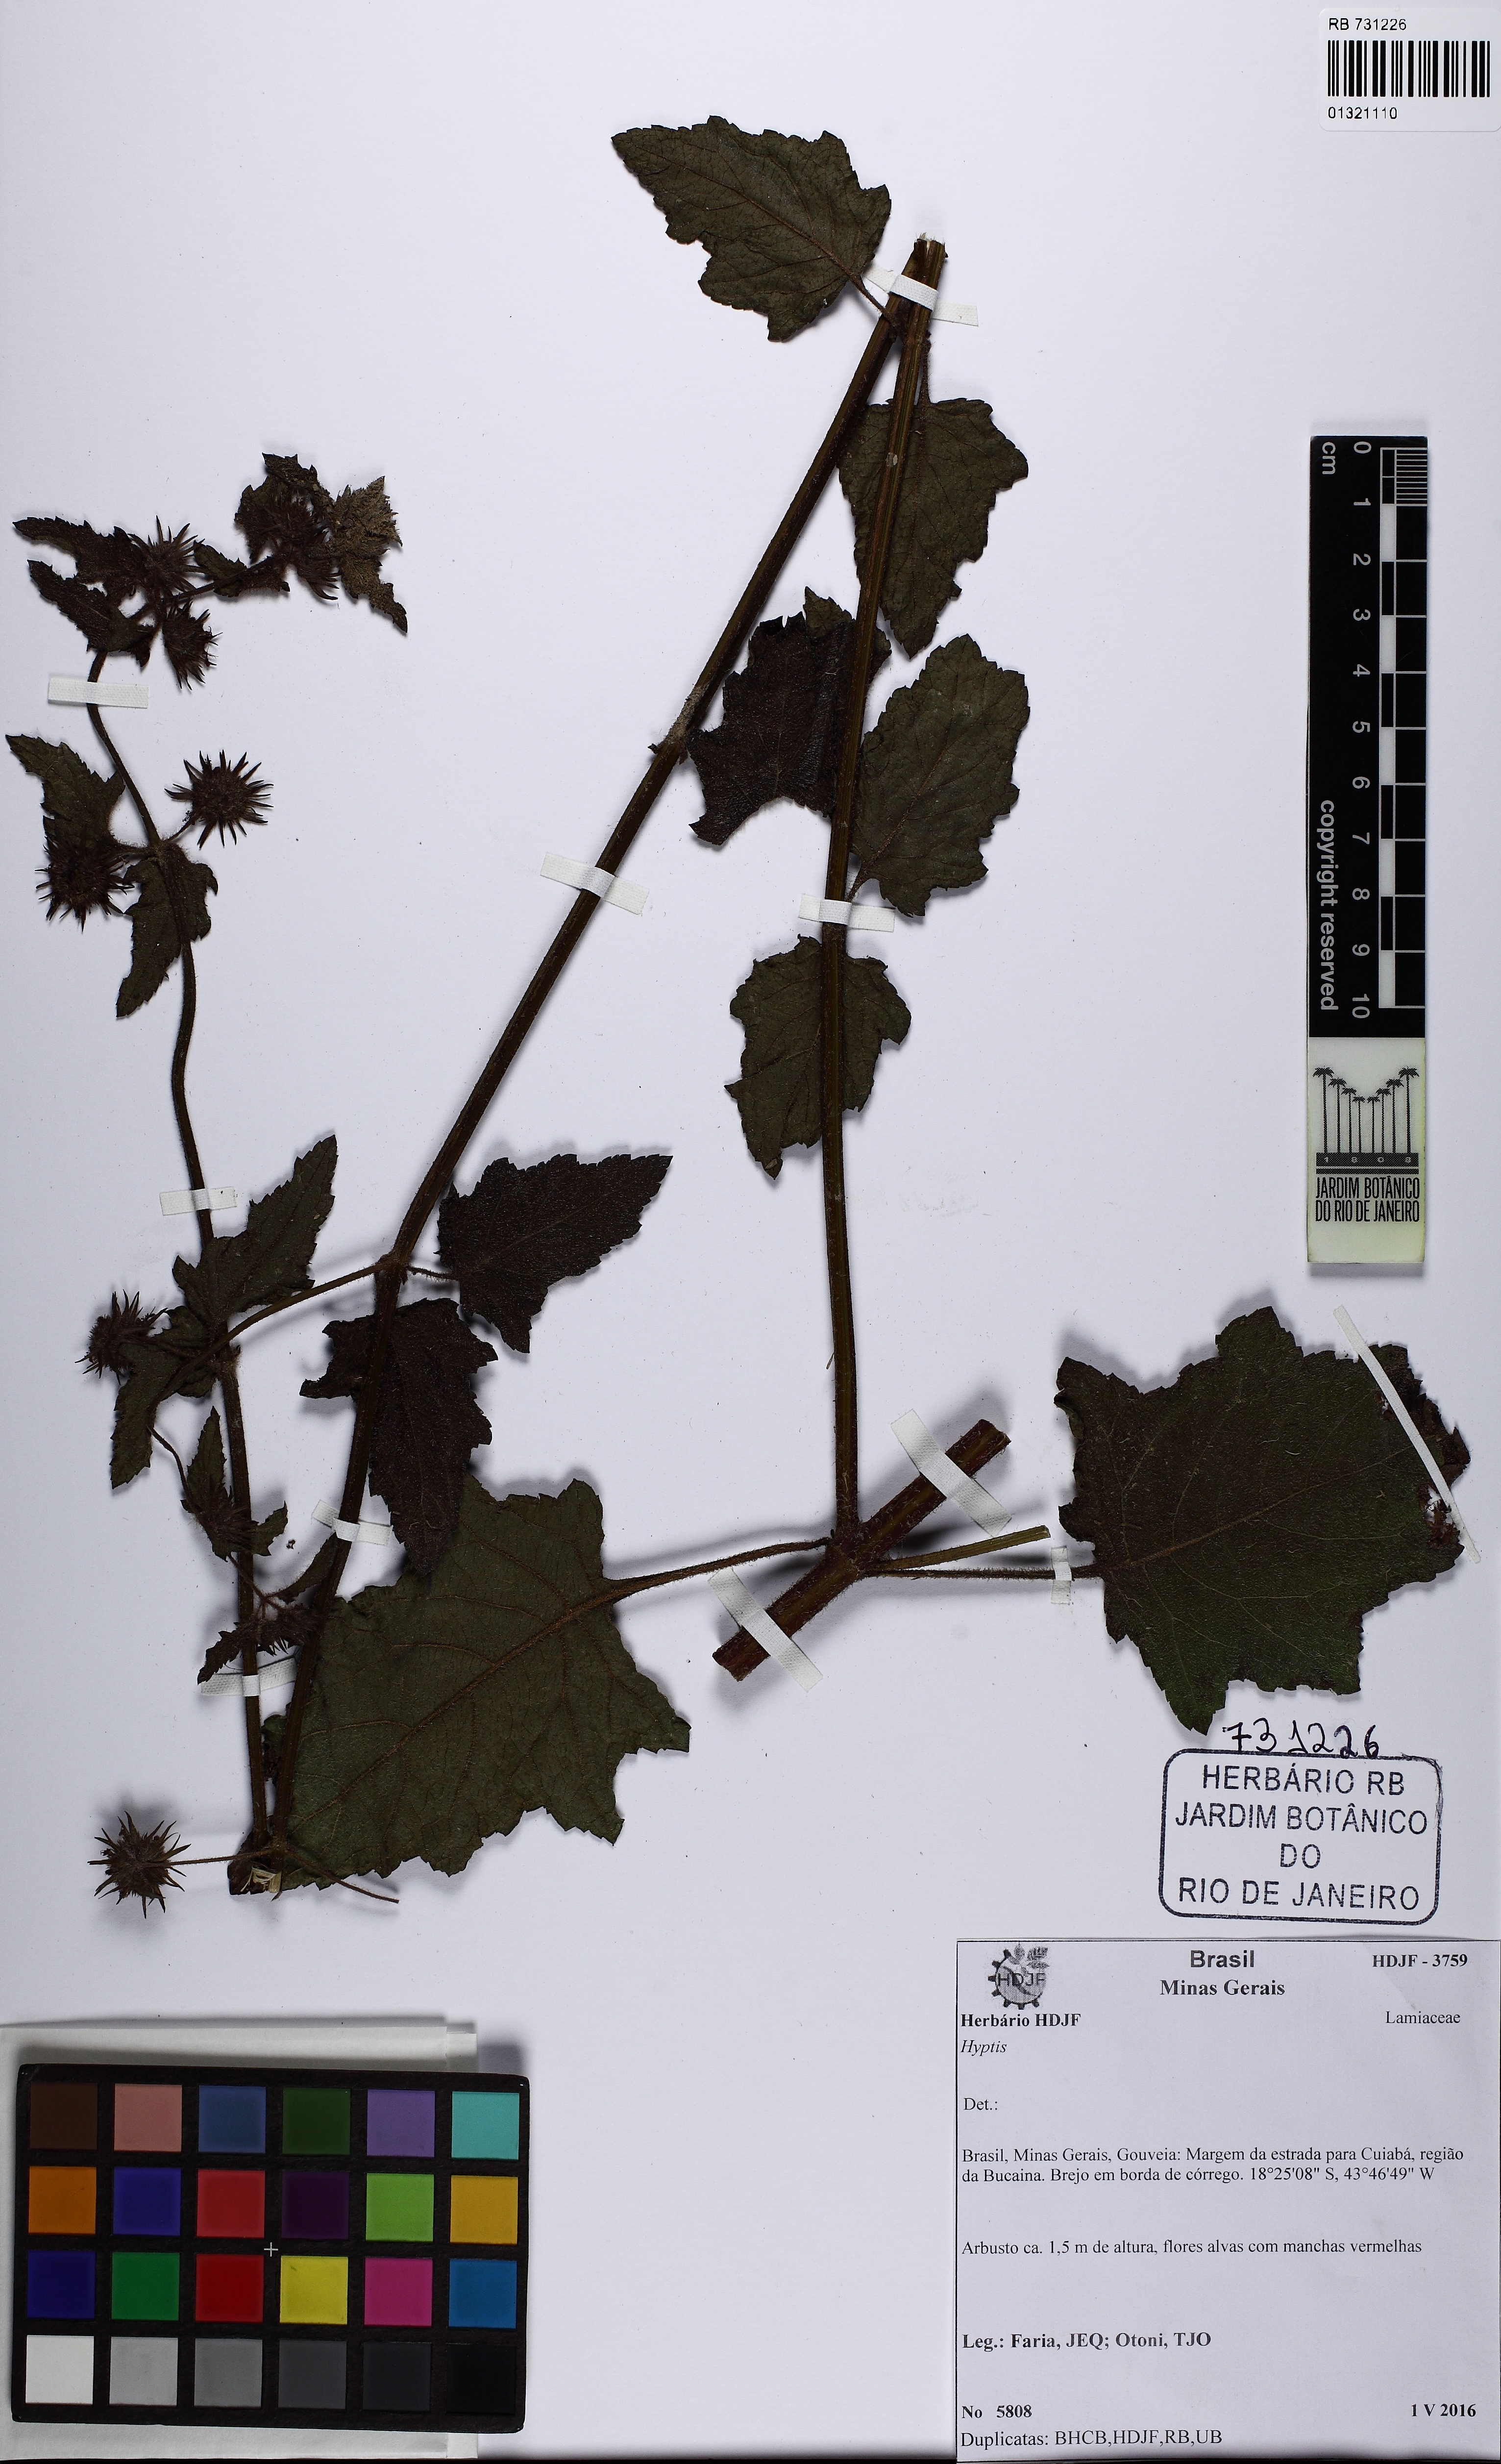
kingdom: Plantae
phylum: Tracheophyta
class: Magnoliopsida
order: Lamiales
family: Lamiaceae
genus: Hyptis
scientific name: Hyptis
